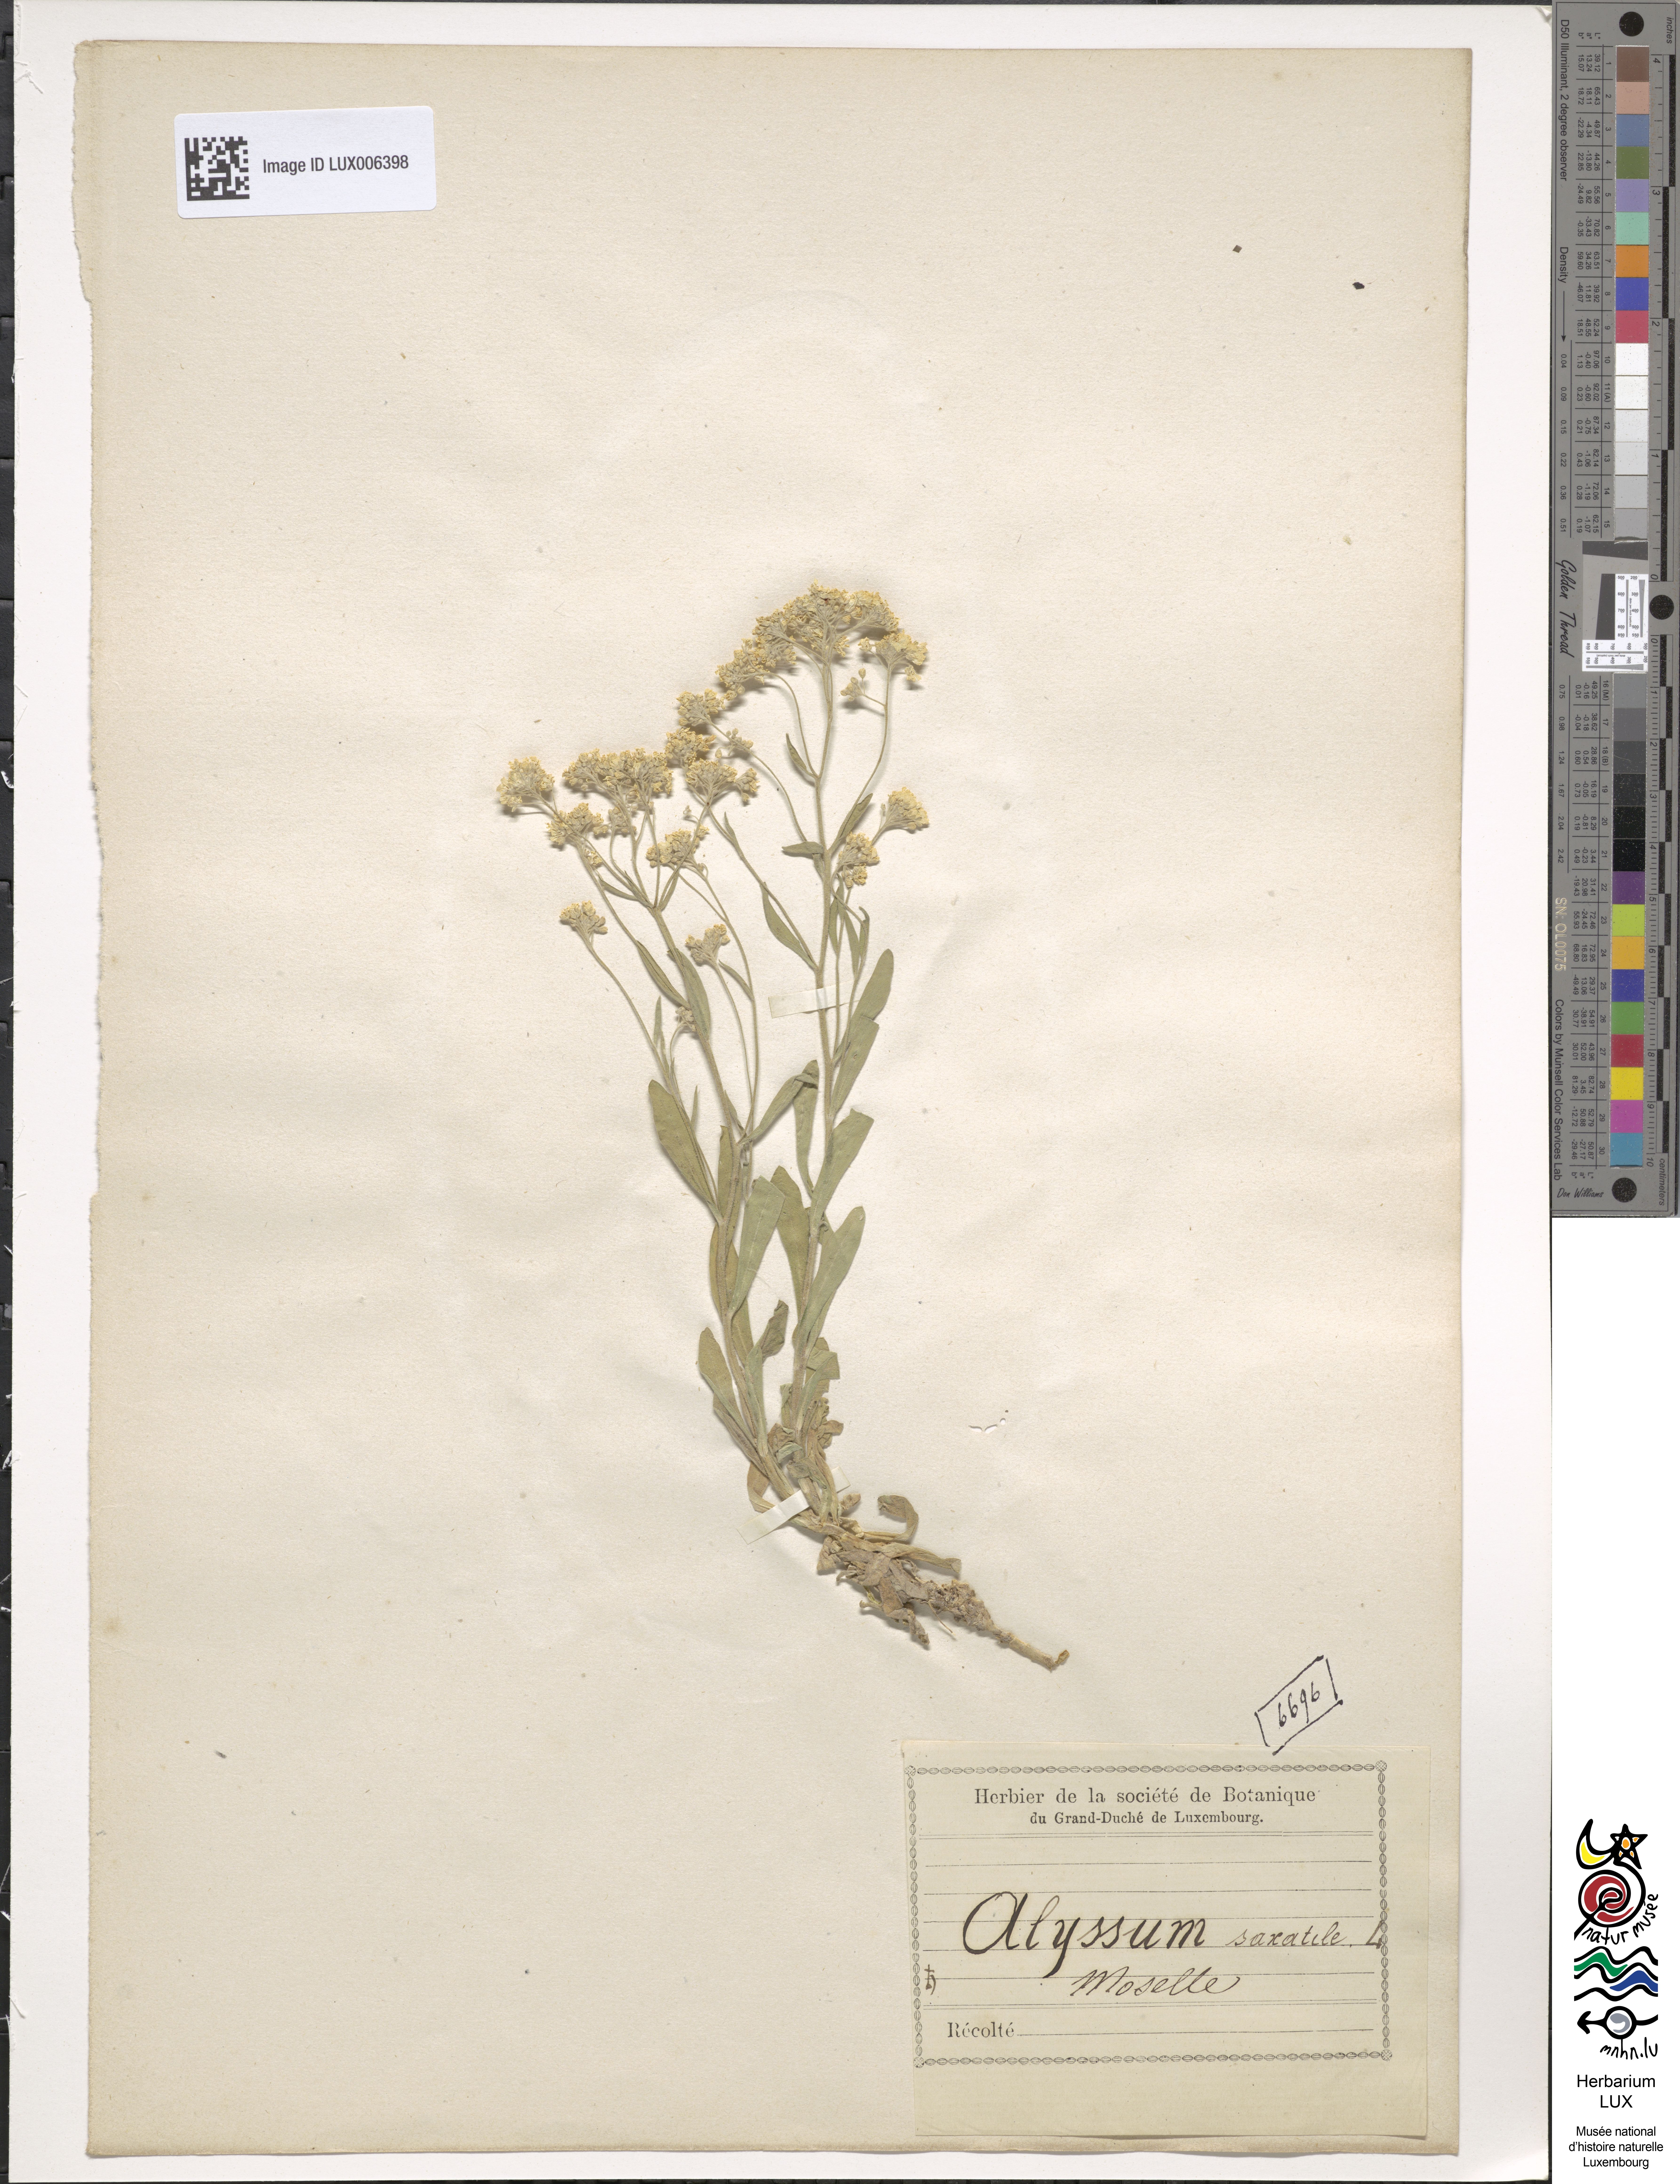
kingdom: Plantae
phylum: Tracheophyta
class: Magnoliopsida
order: Brassicales
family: Brassicaceae
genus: Aurinia
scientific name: Aurinia saxatilis
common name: Golden-tuft alyssum
